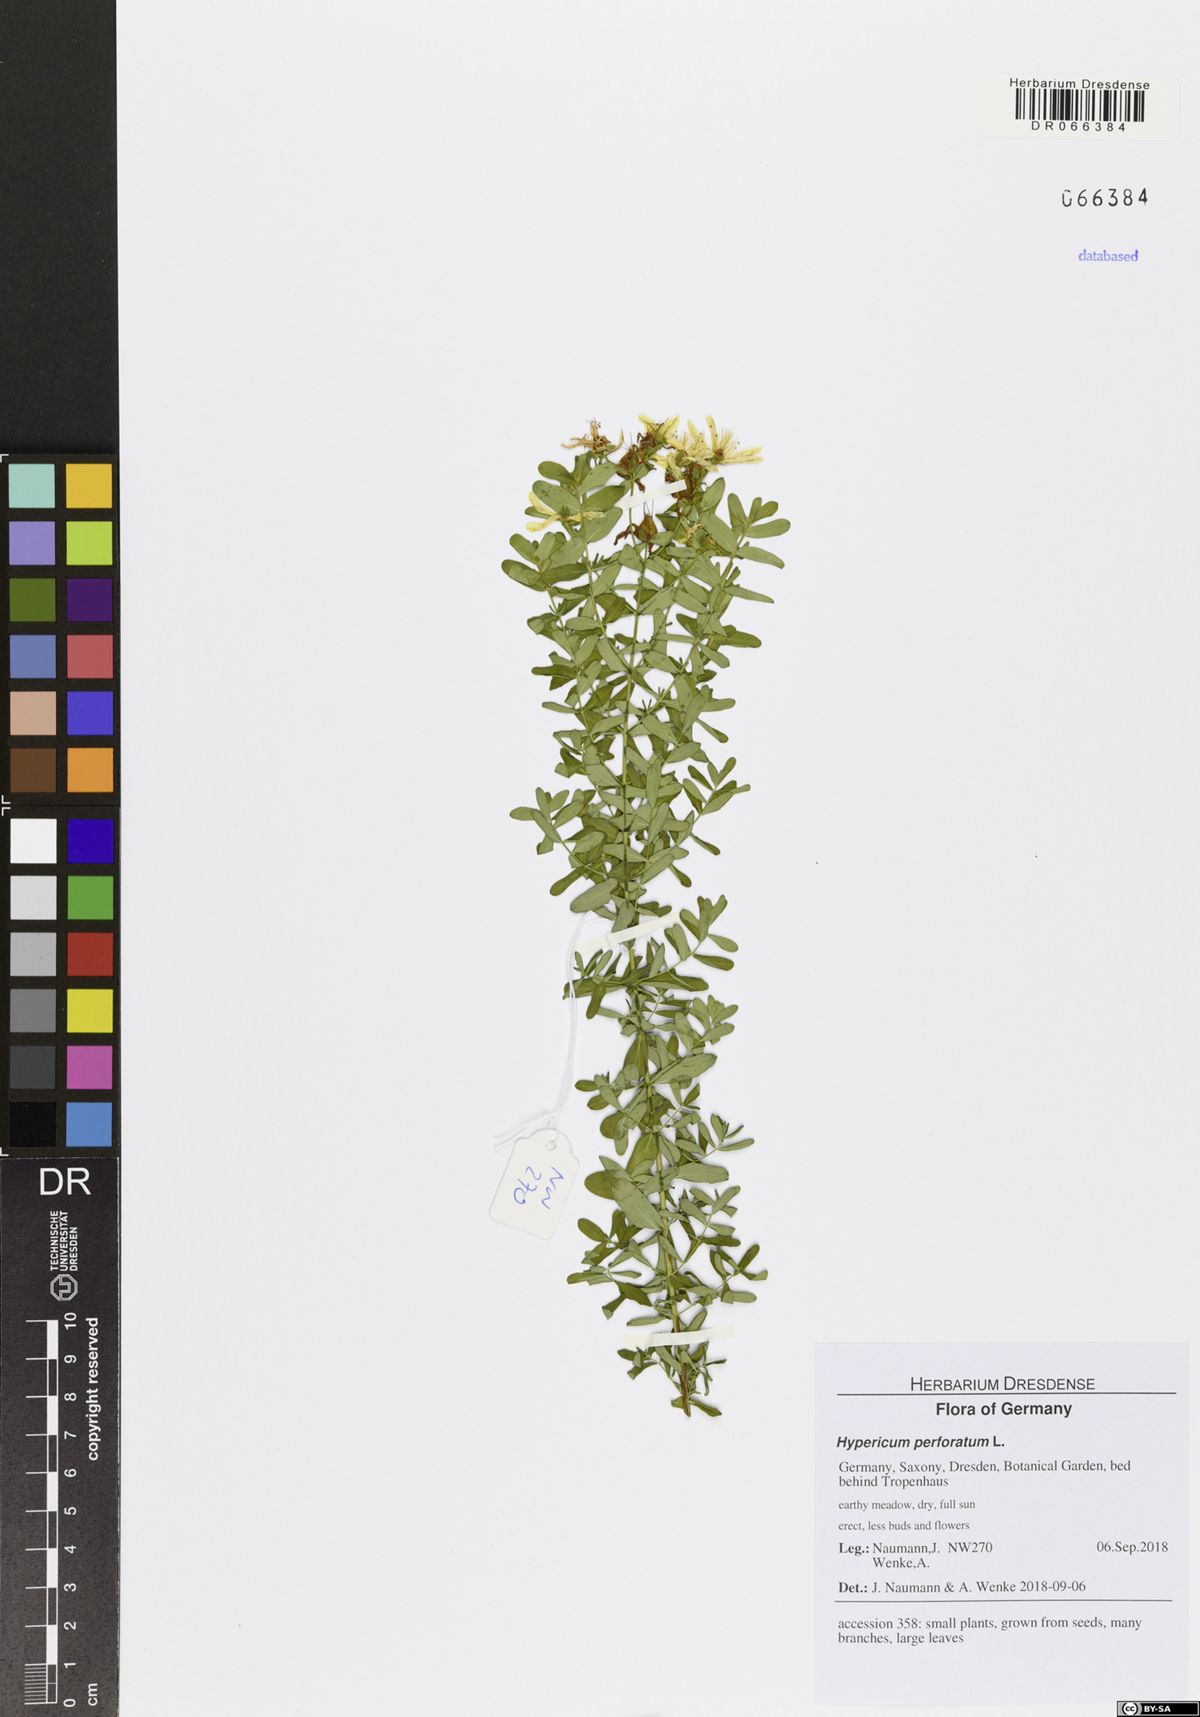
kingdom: Plantae
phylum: Tracheophyta
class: Magnoliopsida
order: Malpighiales
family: Hypericaceae
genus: Hypericum
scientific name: Hypericum perforatum
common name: Common st. johnswort
